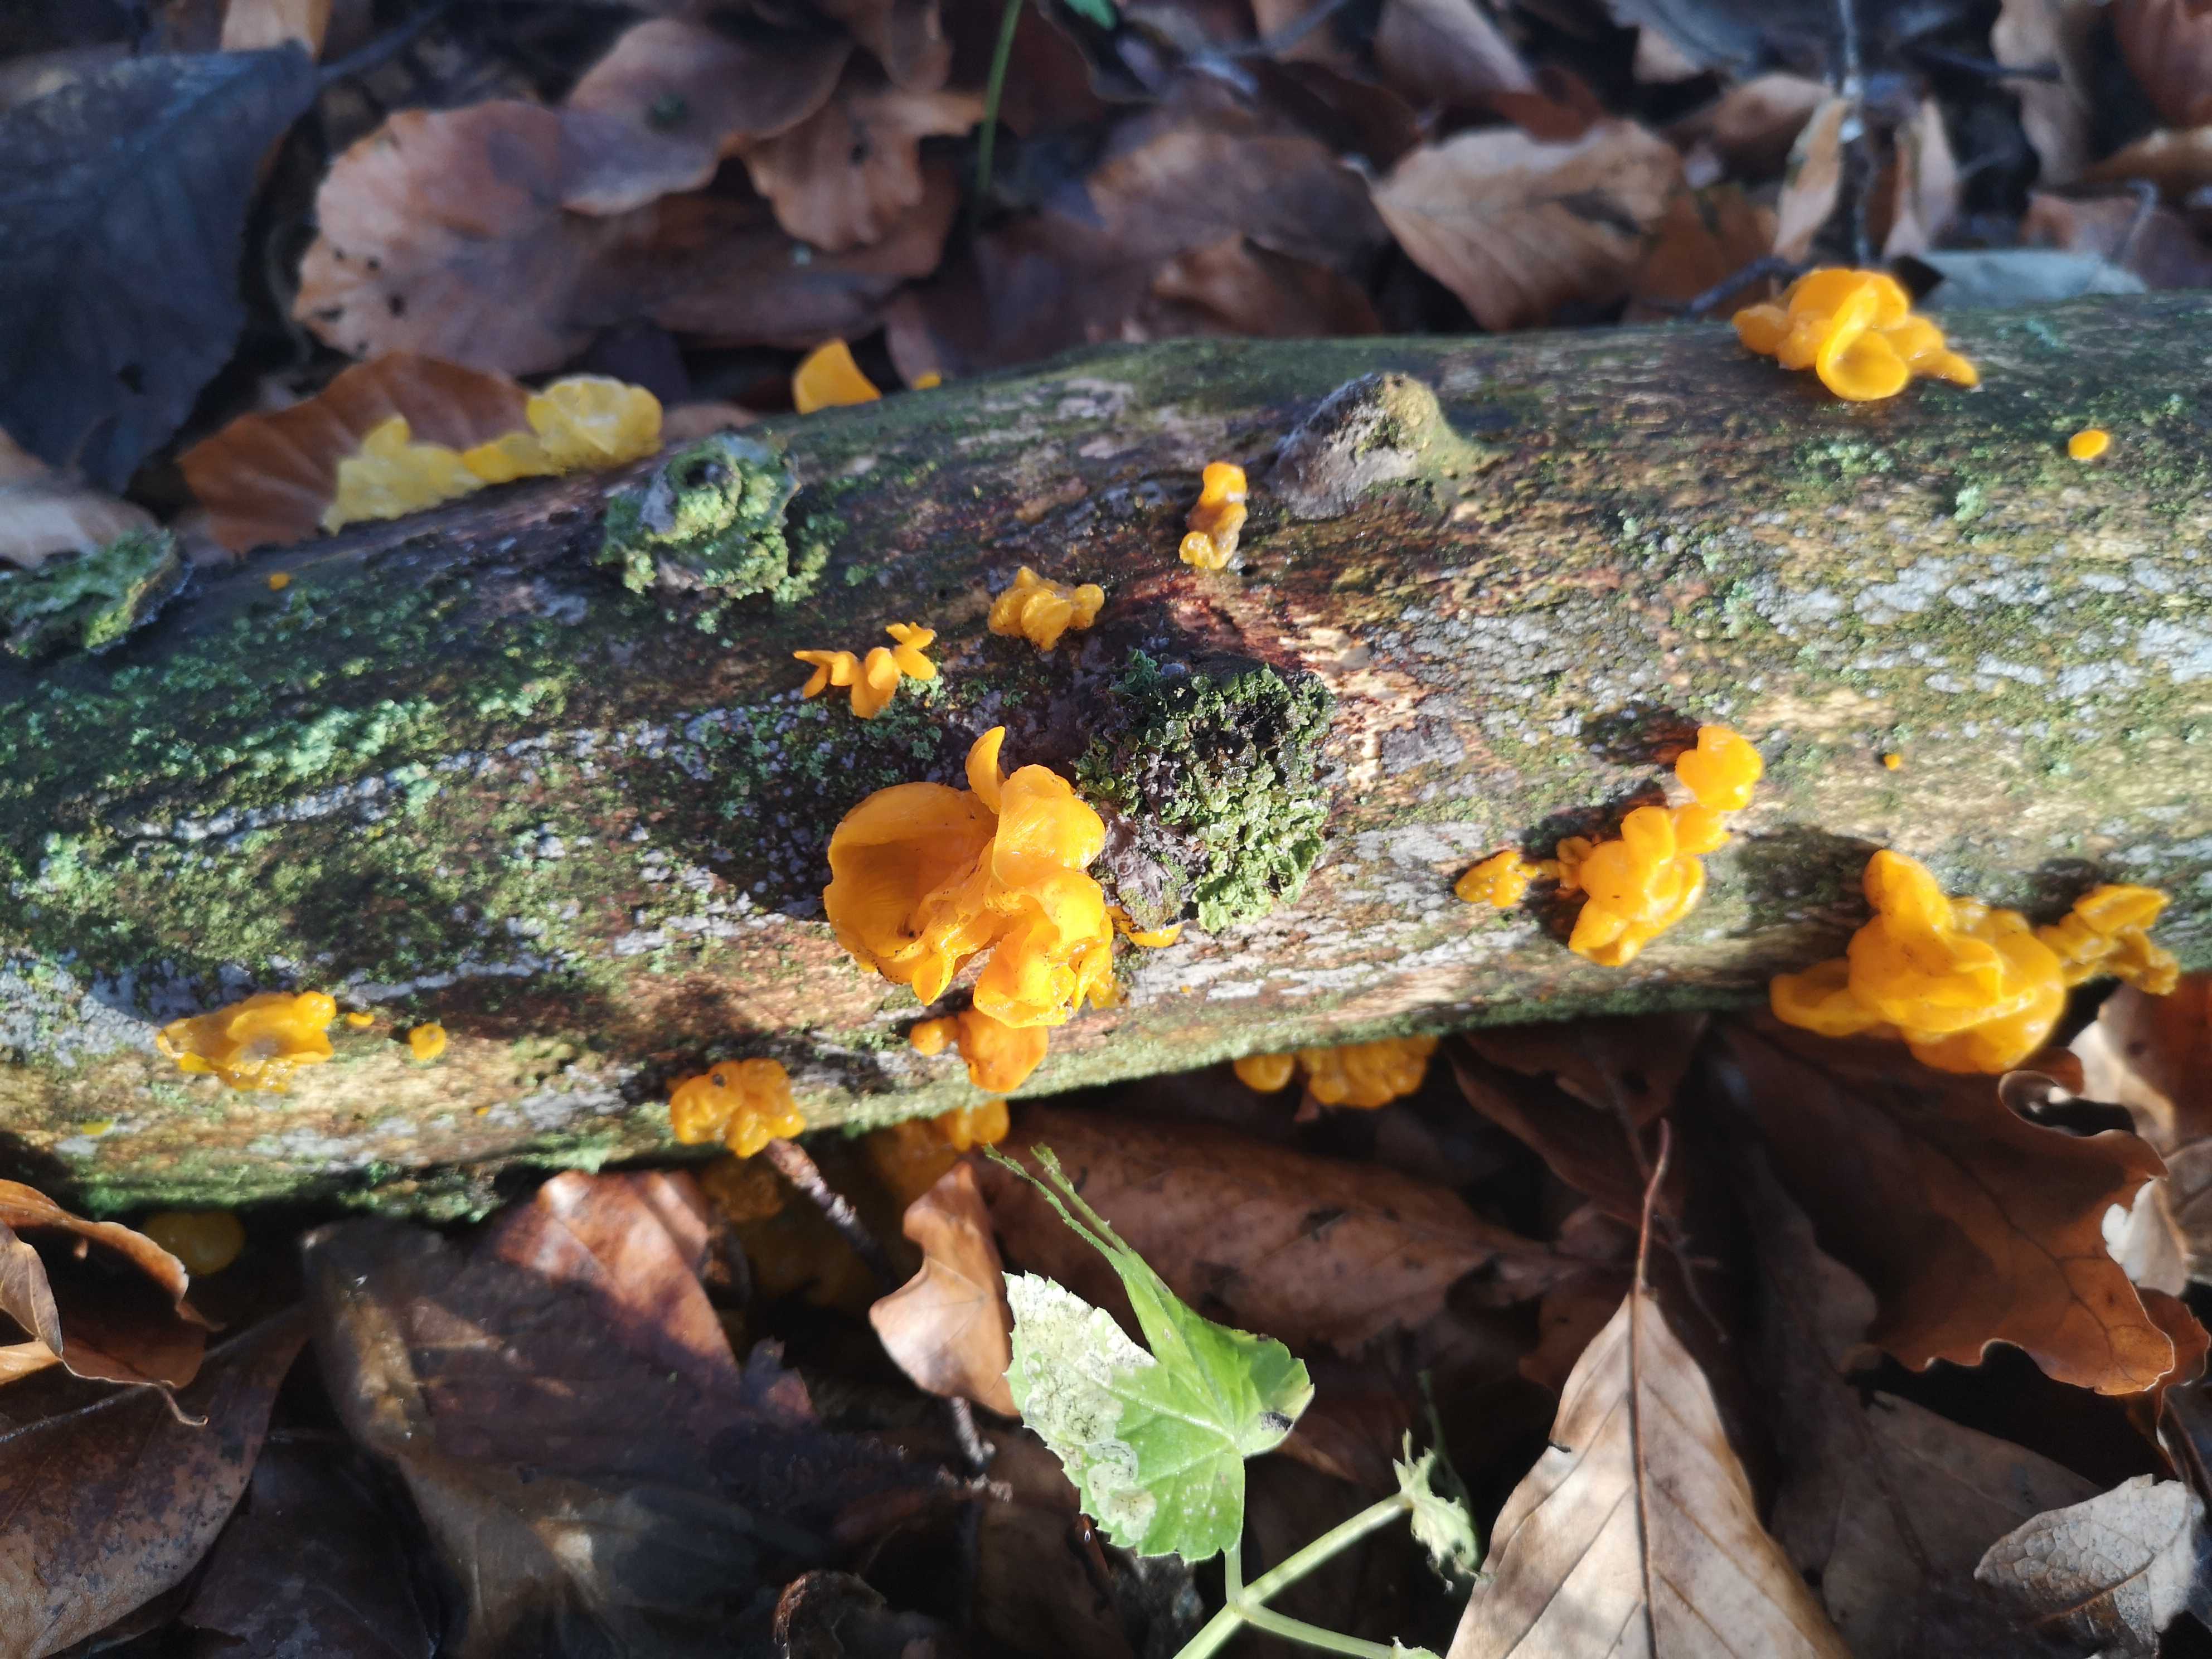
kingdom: Fungi
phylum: Basidiomycota
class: Tremellomycetes
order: Tremellales
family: Tremellaceae
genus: Tremella
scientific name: Tremella mesenterica
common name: gul bævresvamp
